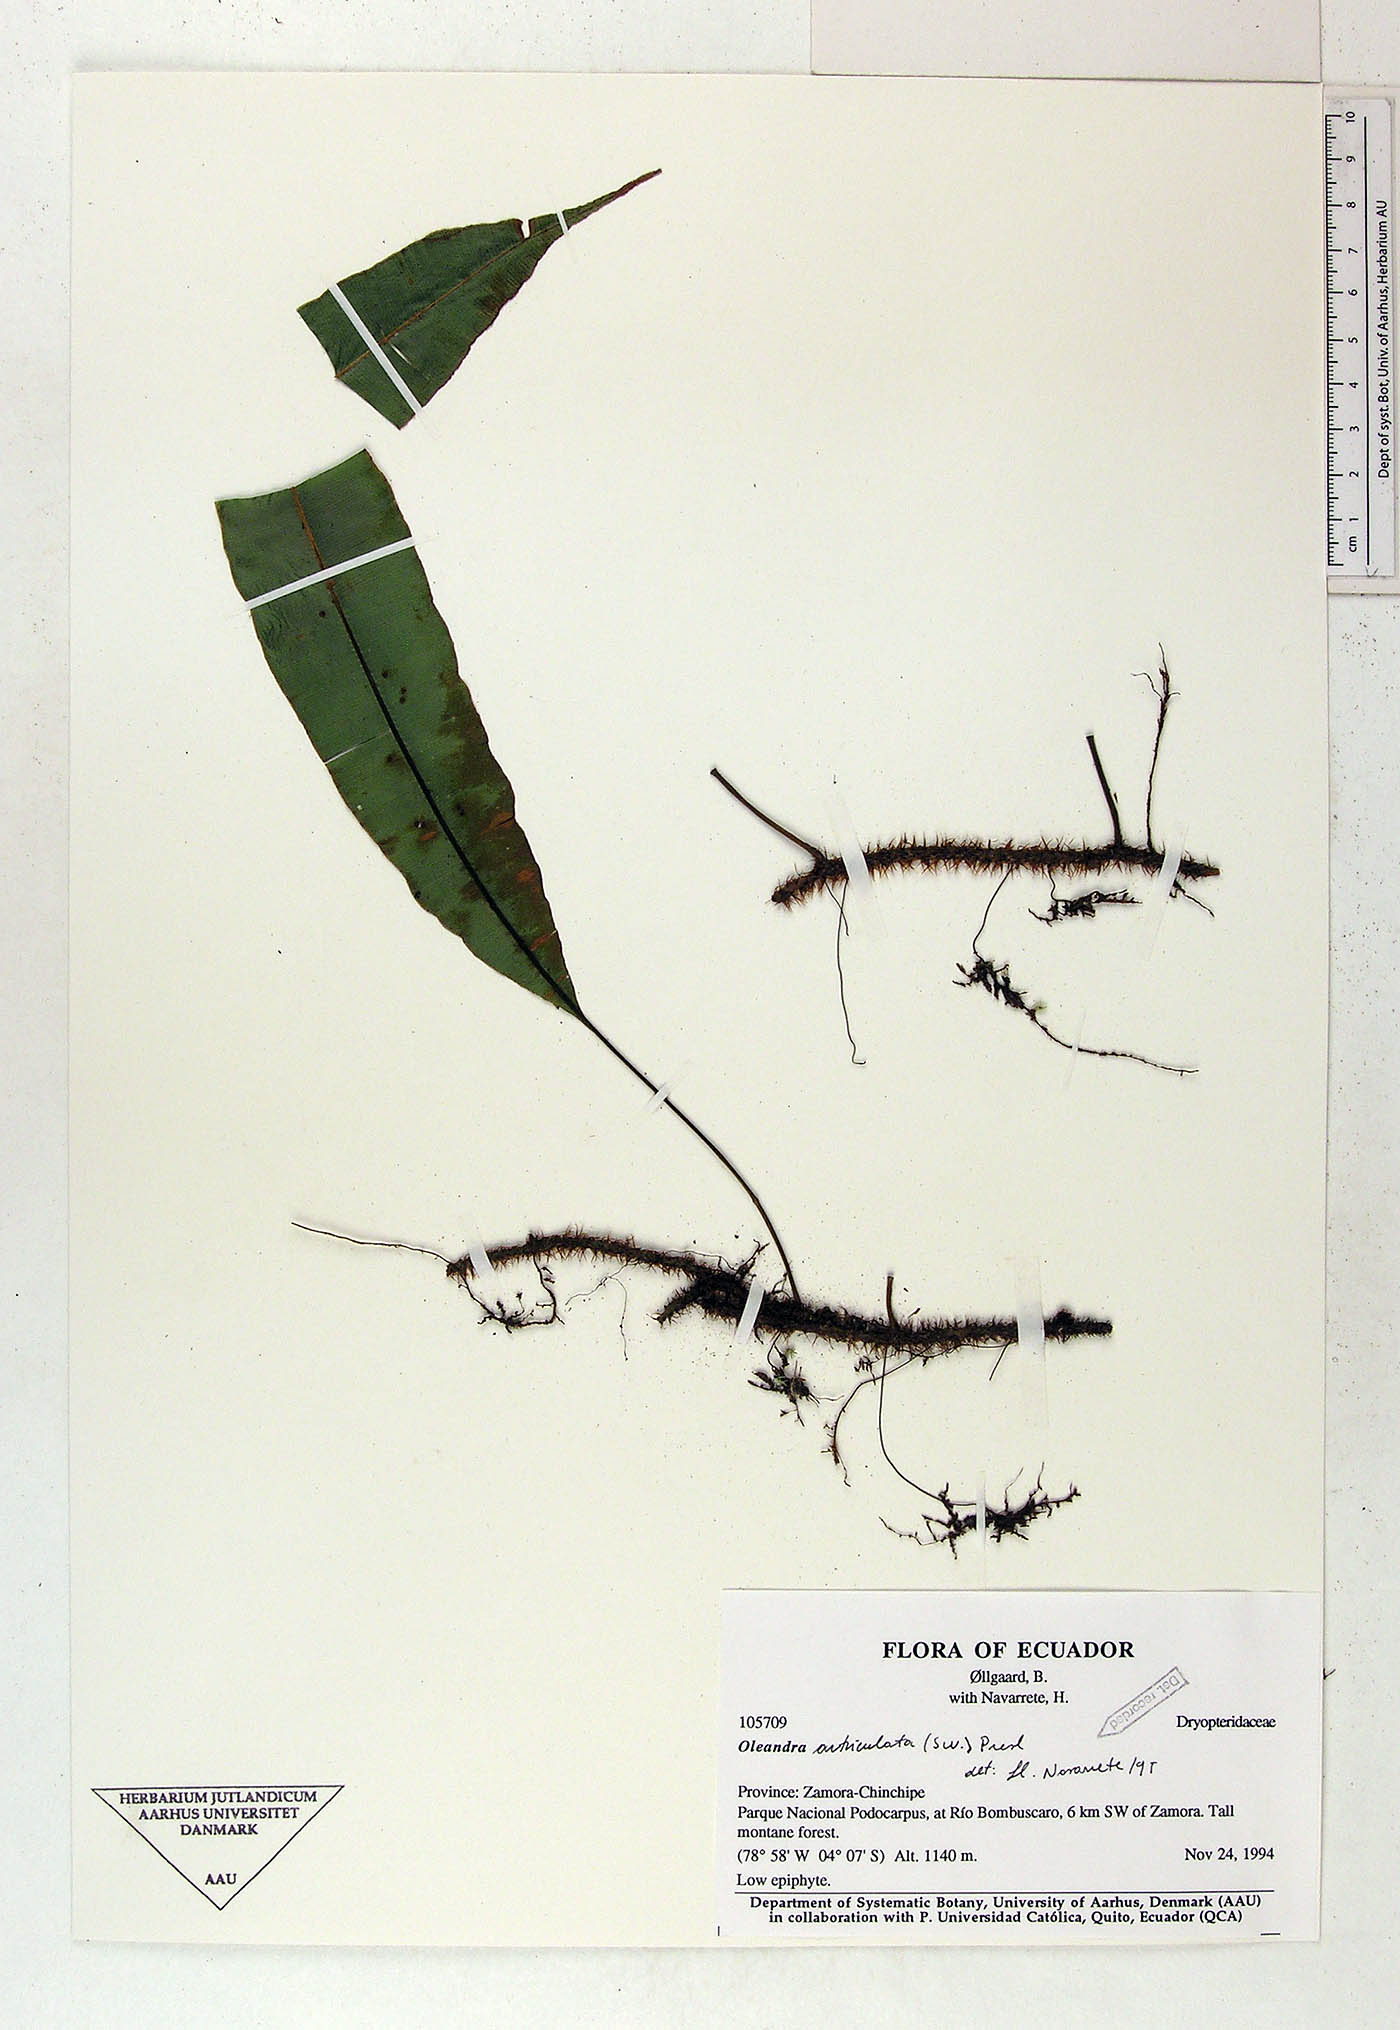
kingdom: Plantae
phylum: Tracheophyta
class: Polypodiopsida
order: Polypodiales
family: Oleandraceae
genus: Oleandra
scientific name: Oleandra articulata
